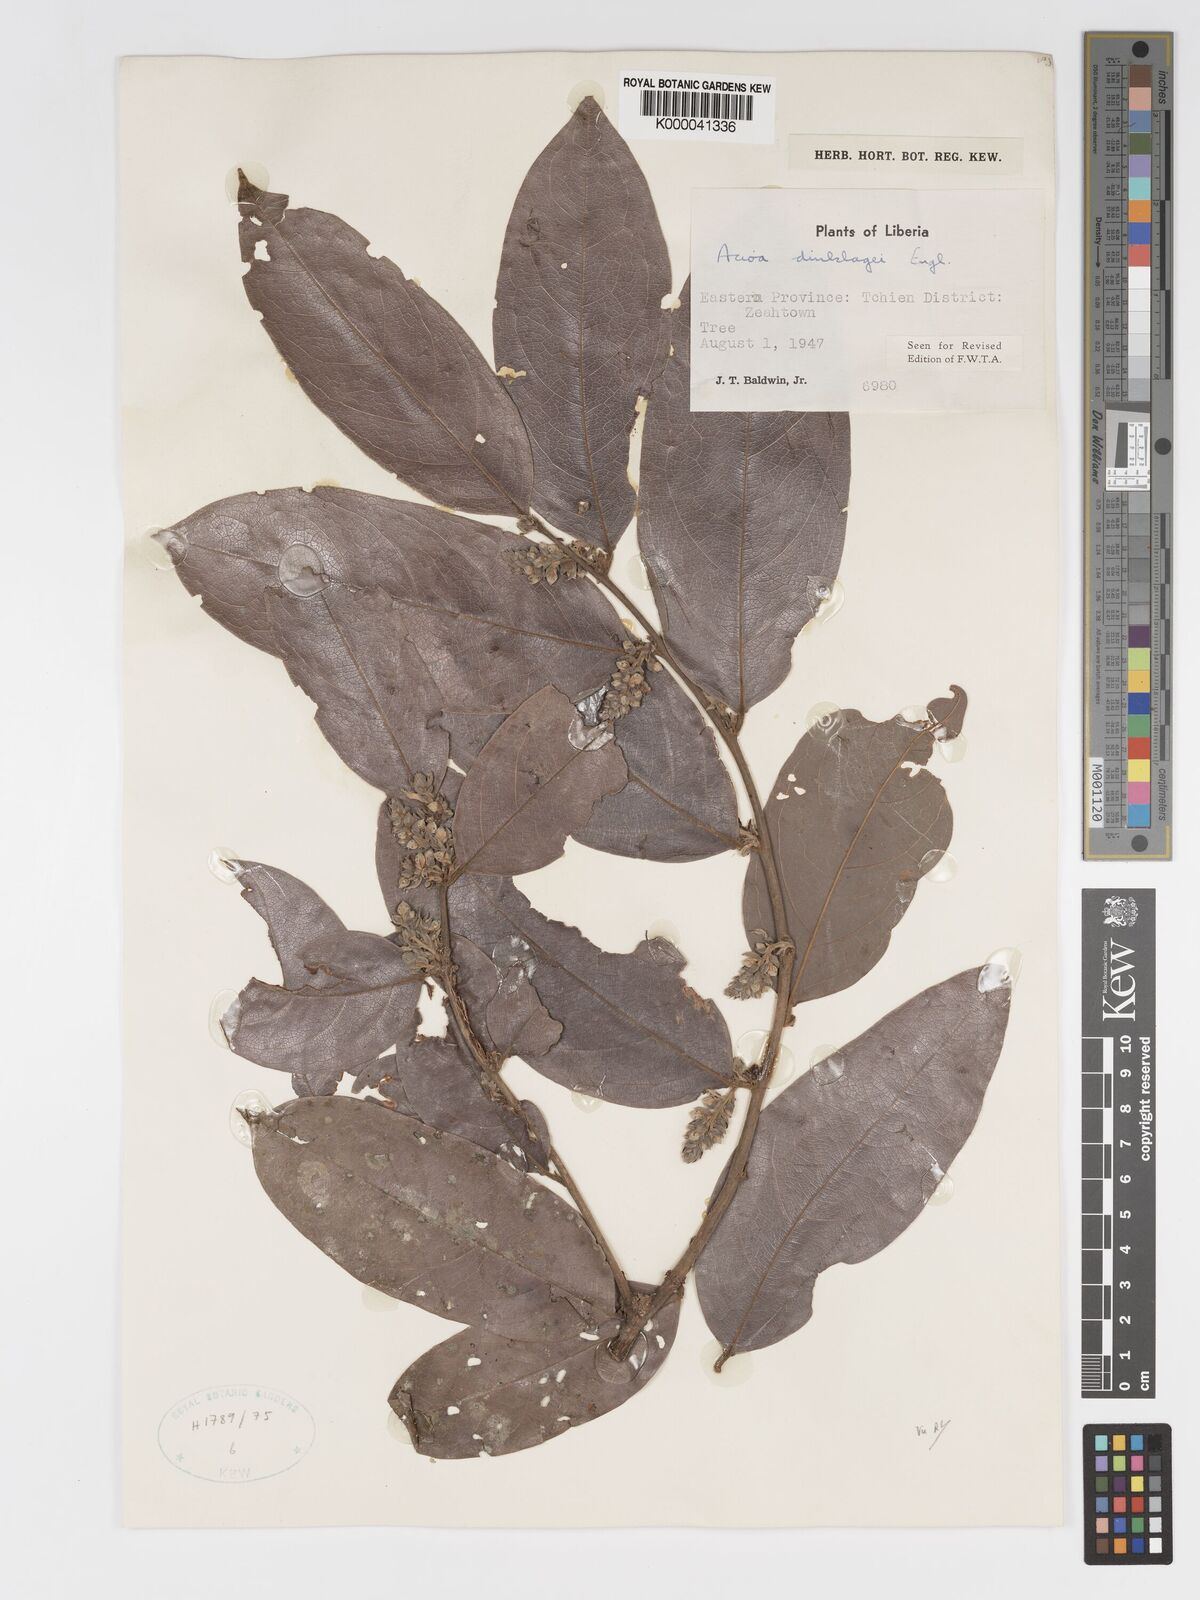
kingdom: Plantae
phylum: Tracheophyta
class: Magnoliopsida
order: Malpighiales
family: Chrysobalanaceae
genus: Dactyladenia
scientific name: Dactyladenia dinklagei
